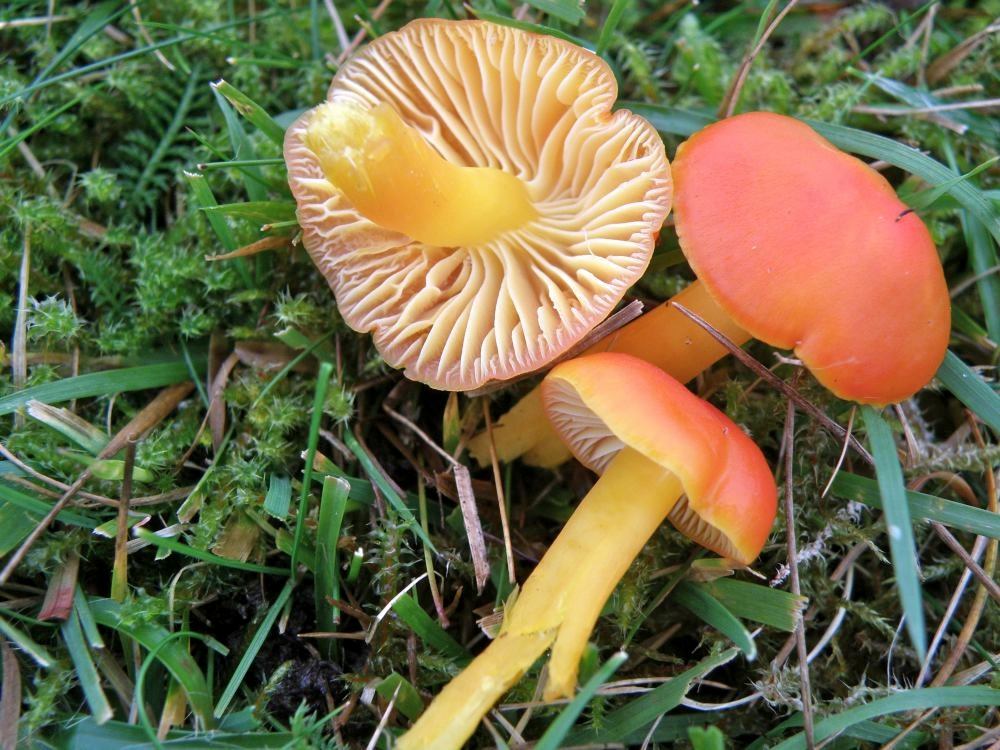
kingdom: Fungi
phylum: Basidiomycota
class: Agaricomycetes
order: Agaricales
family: Hygrophoraceae
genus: Hygrocybe
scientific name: Hygrocybe ceracea
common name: voksgul vokshat
